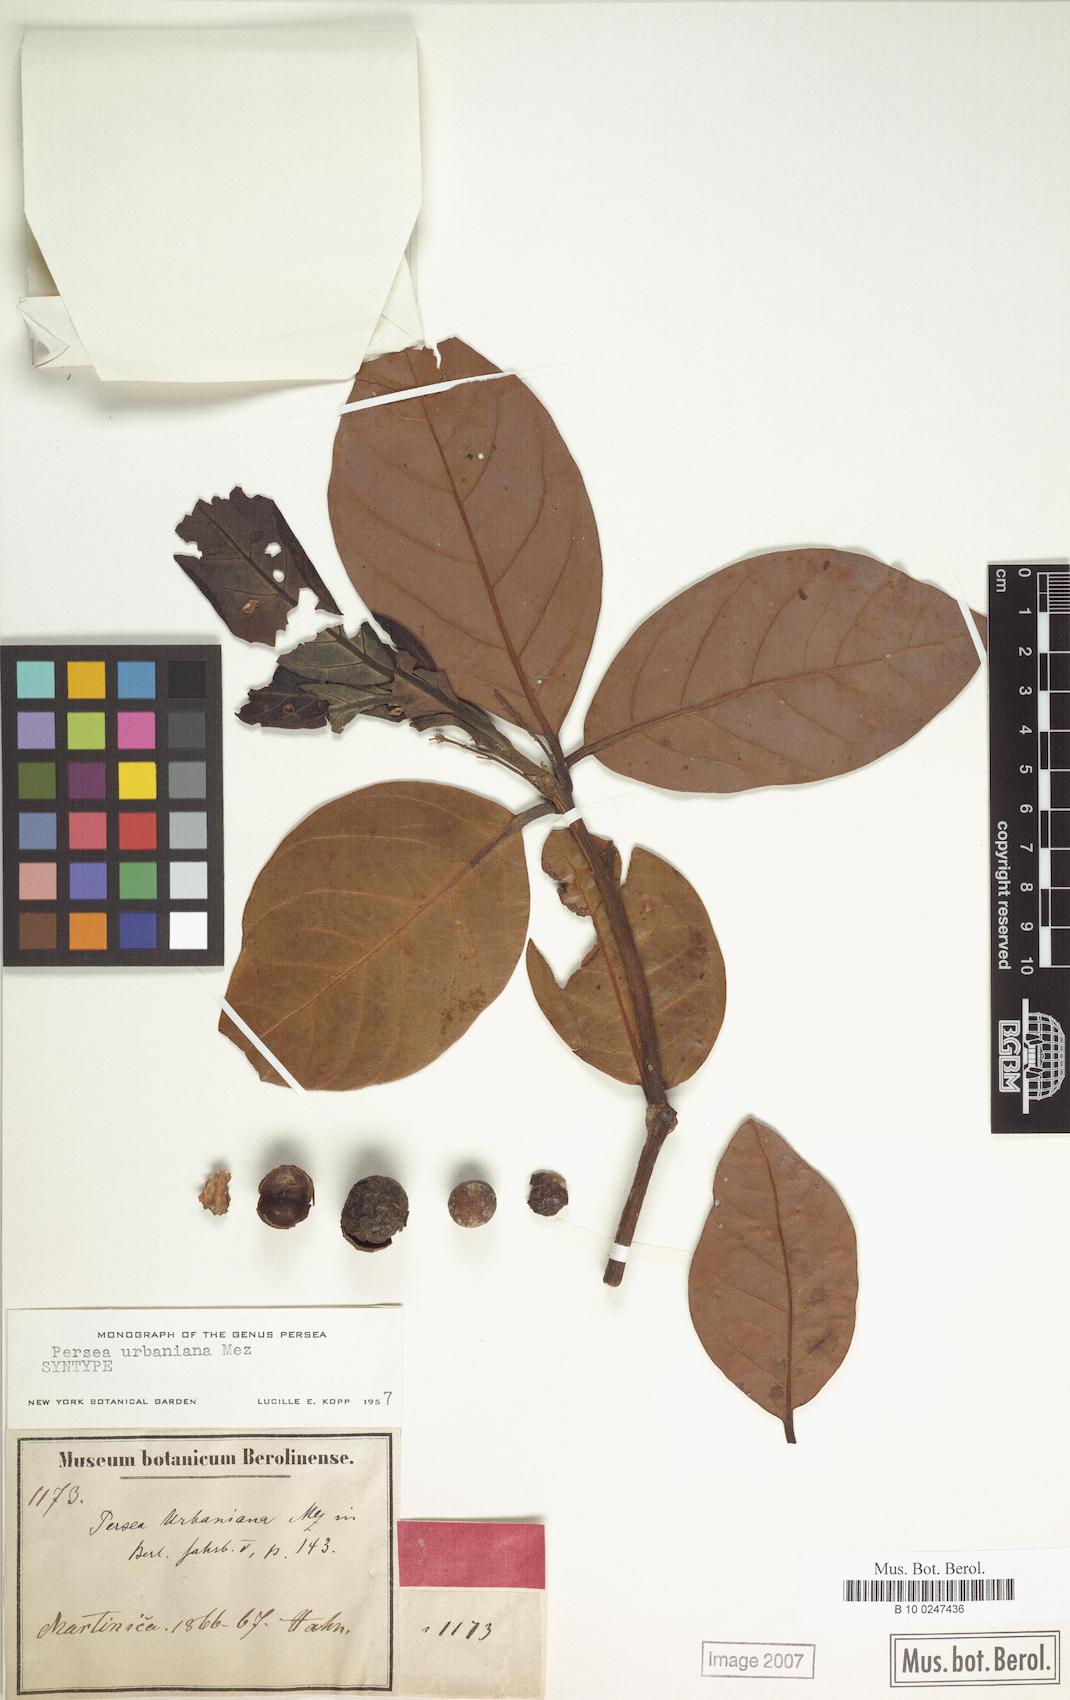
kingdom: Plantae
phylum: Tracheophyta
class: Magnoliopsida
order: Laurales
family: Lauraceae
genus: Persea
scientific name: Persea urbaniana
